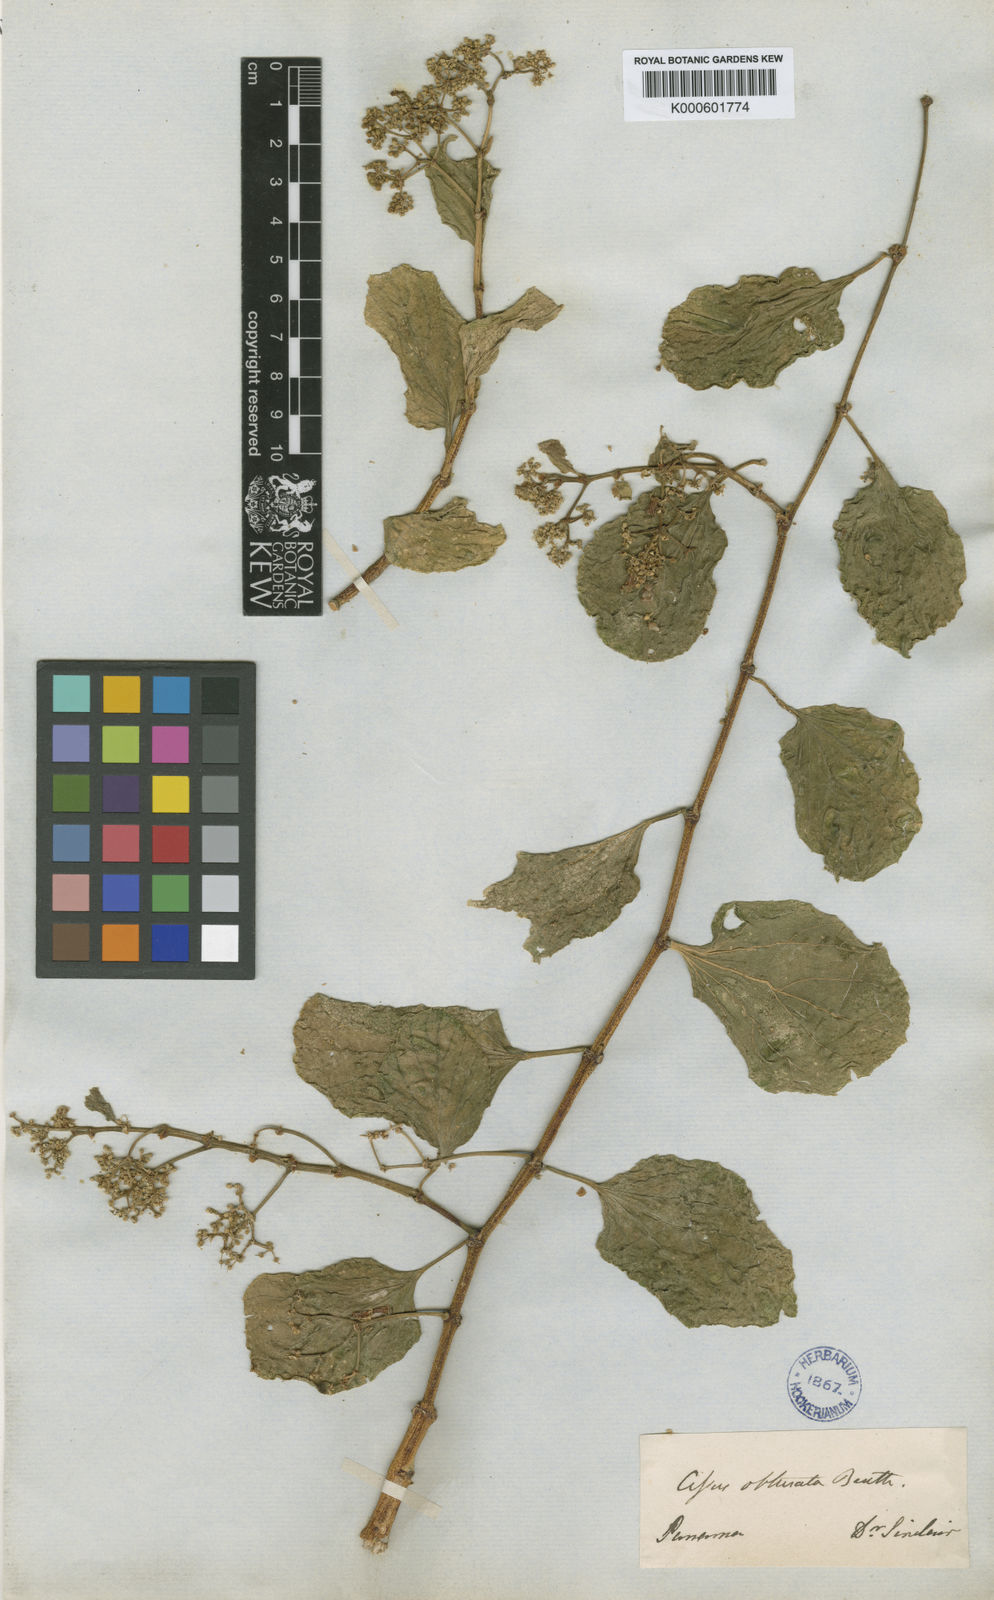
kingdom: Plantae
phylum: Tracheophyta
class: Magnoliopsida
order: Vitales
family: Vitaceae
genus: Cissus
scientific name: Cissus verticillata
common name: Princess vine
